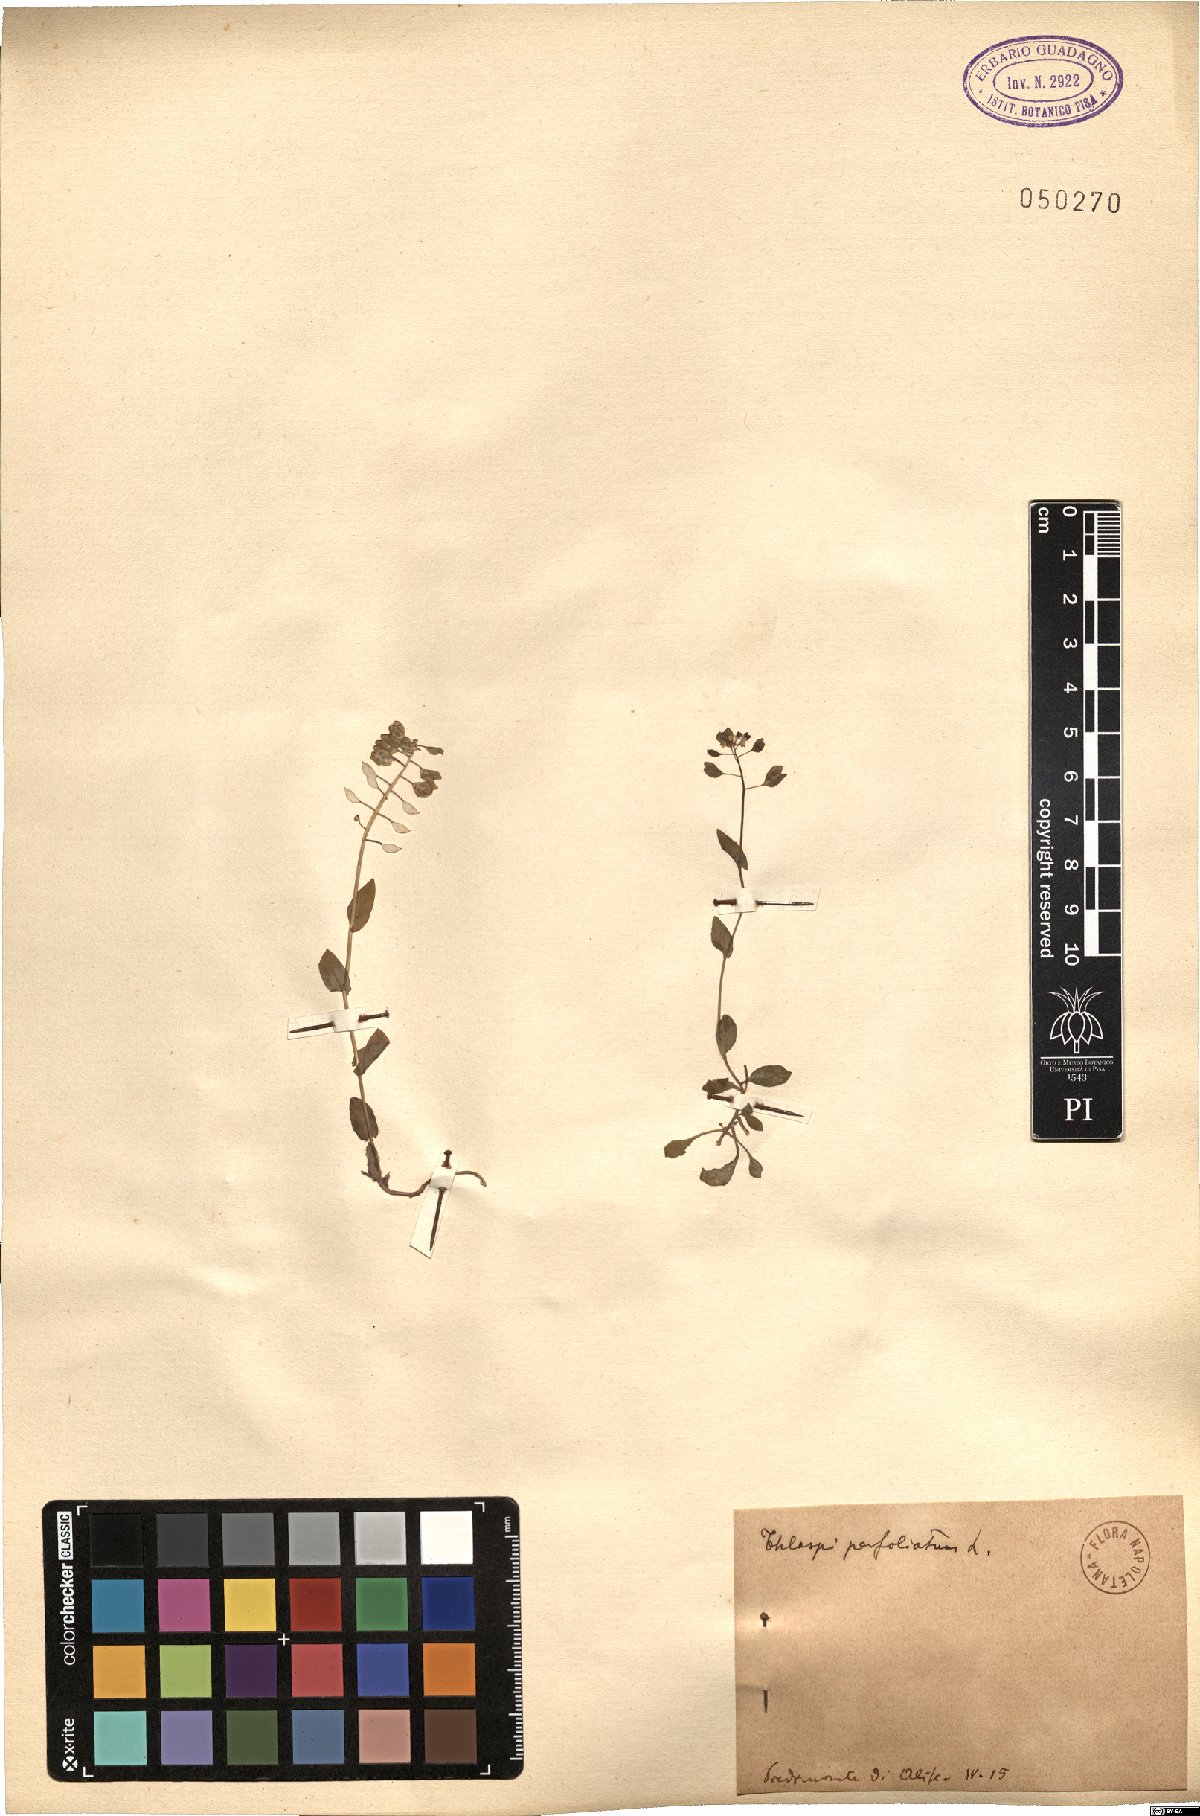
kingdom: Plantae
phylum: Tracheophyta
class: Magnoliopsida
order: Brassicales
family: Brassicaceae
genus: Noccaea
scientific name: Noccaea perfoliata
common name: Perfoliate pennycress
